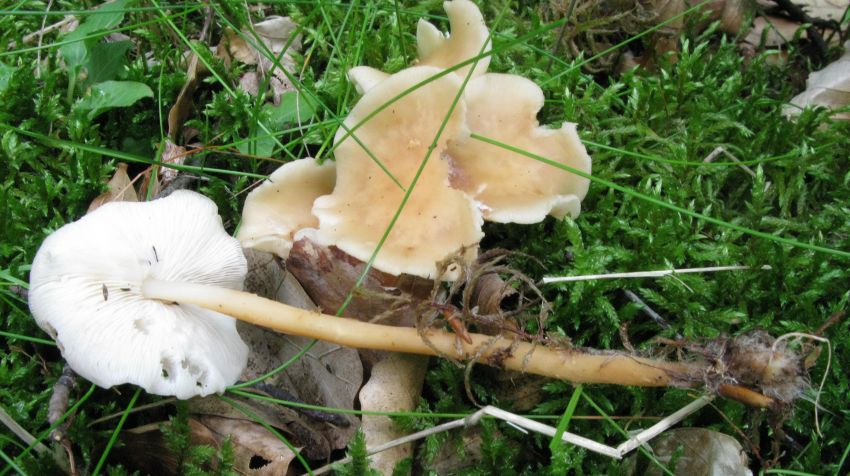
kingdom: Fungi
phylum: Basidiomycota
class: Agaricomycetes
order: Agaricales
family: Omphalotaceae
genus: Gymnopus
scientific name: Gymnopus dryophilus
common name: løv-fladhat
